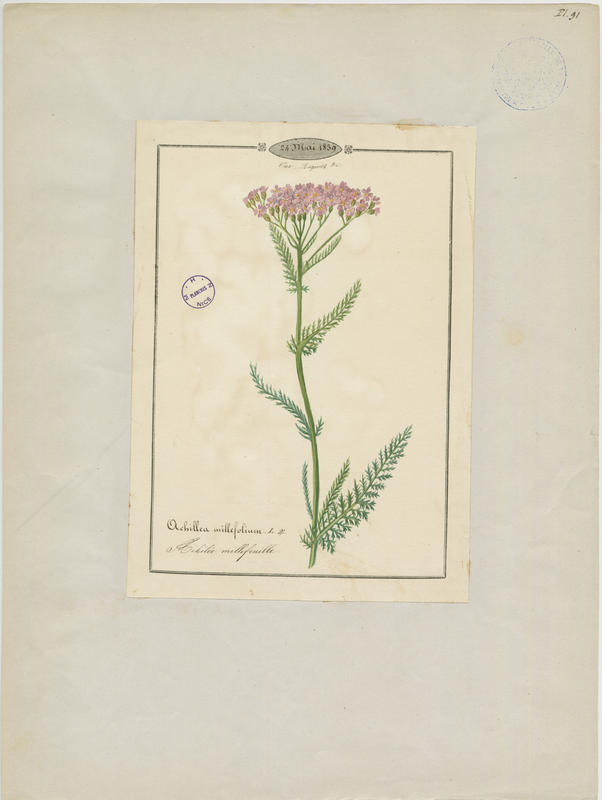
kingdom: Plantae
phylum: Tracheophyta
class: Magnoliopsida
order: Asterales
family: Asteraceae
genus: Achillea
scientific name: Achillea millefolium
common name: Yarrow
